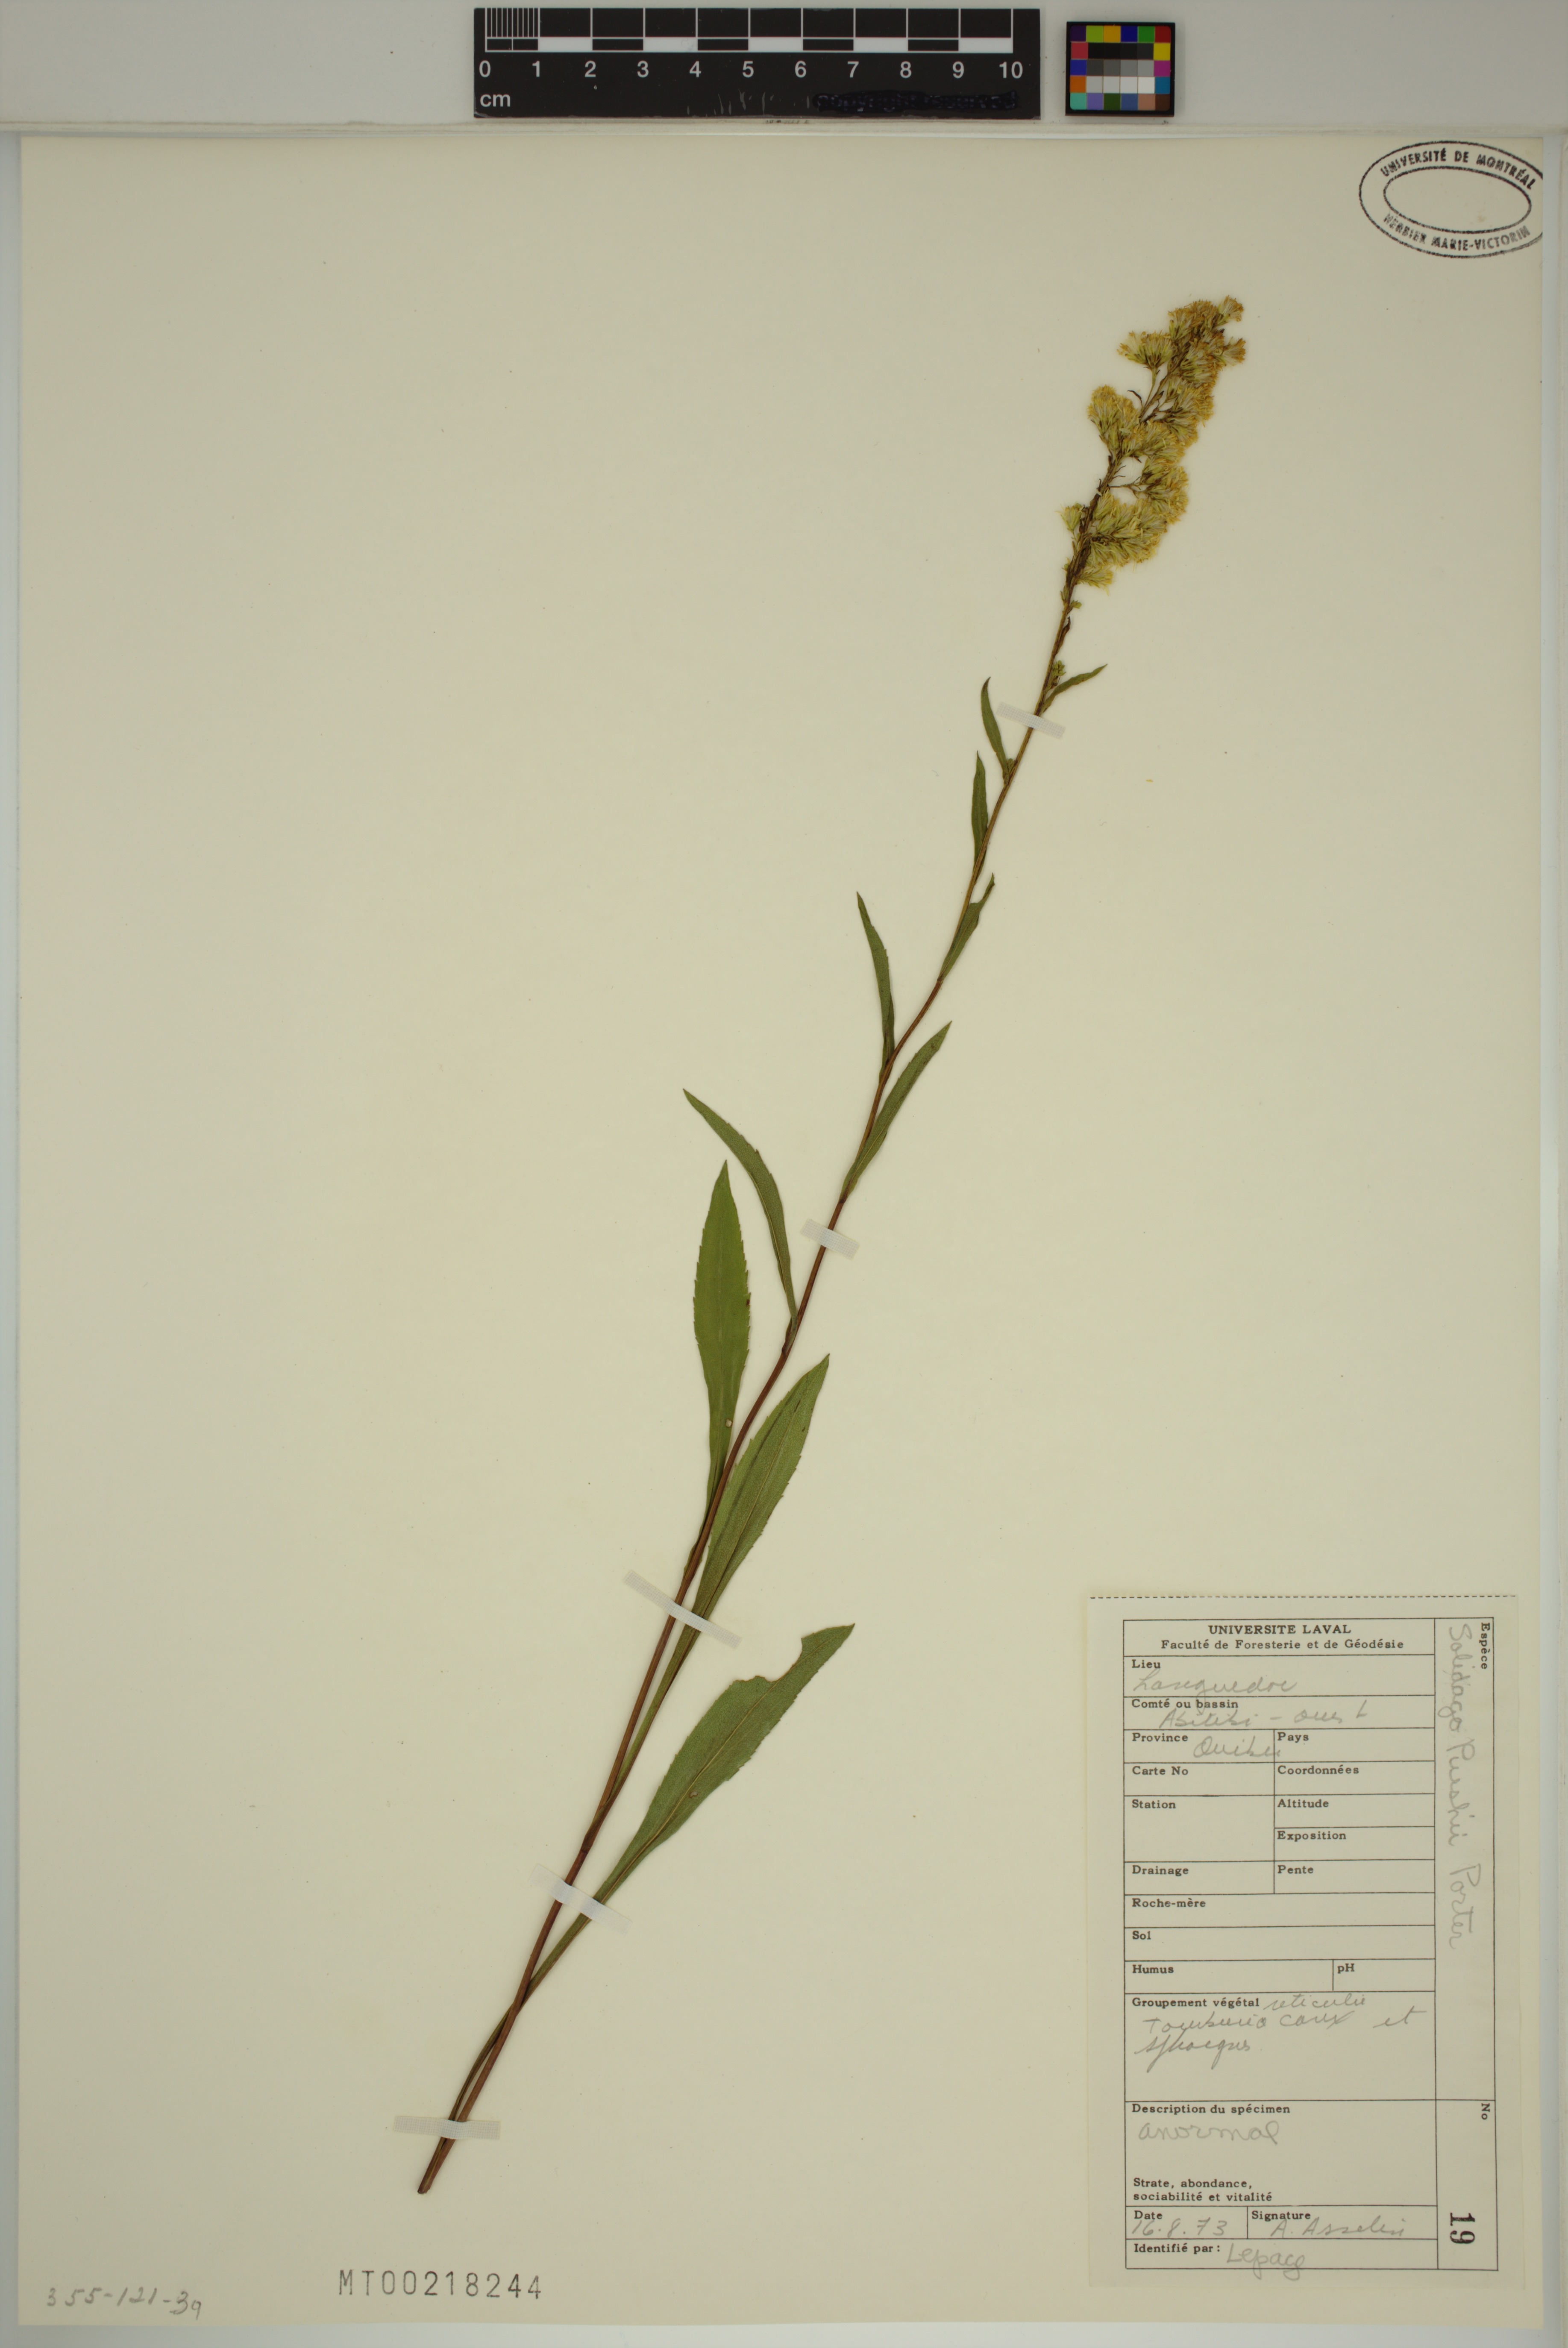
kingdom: Plantae
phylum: Tracheophyta
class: Magnoliopsida
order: Asterales
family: Asteraceae
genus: Solidago
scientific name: Solidago uliginosa
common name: Bog goldenrod
